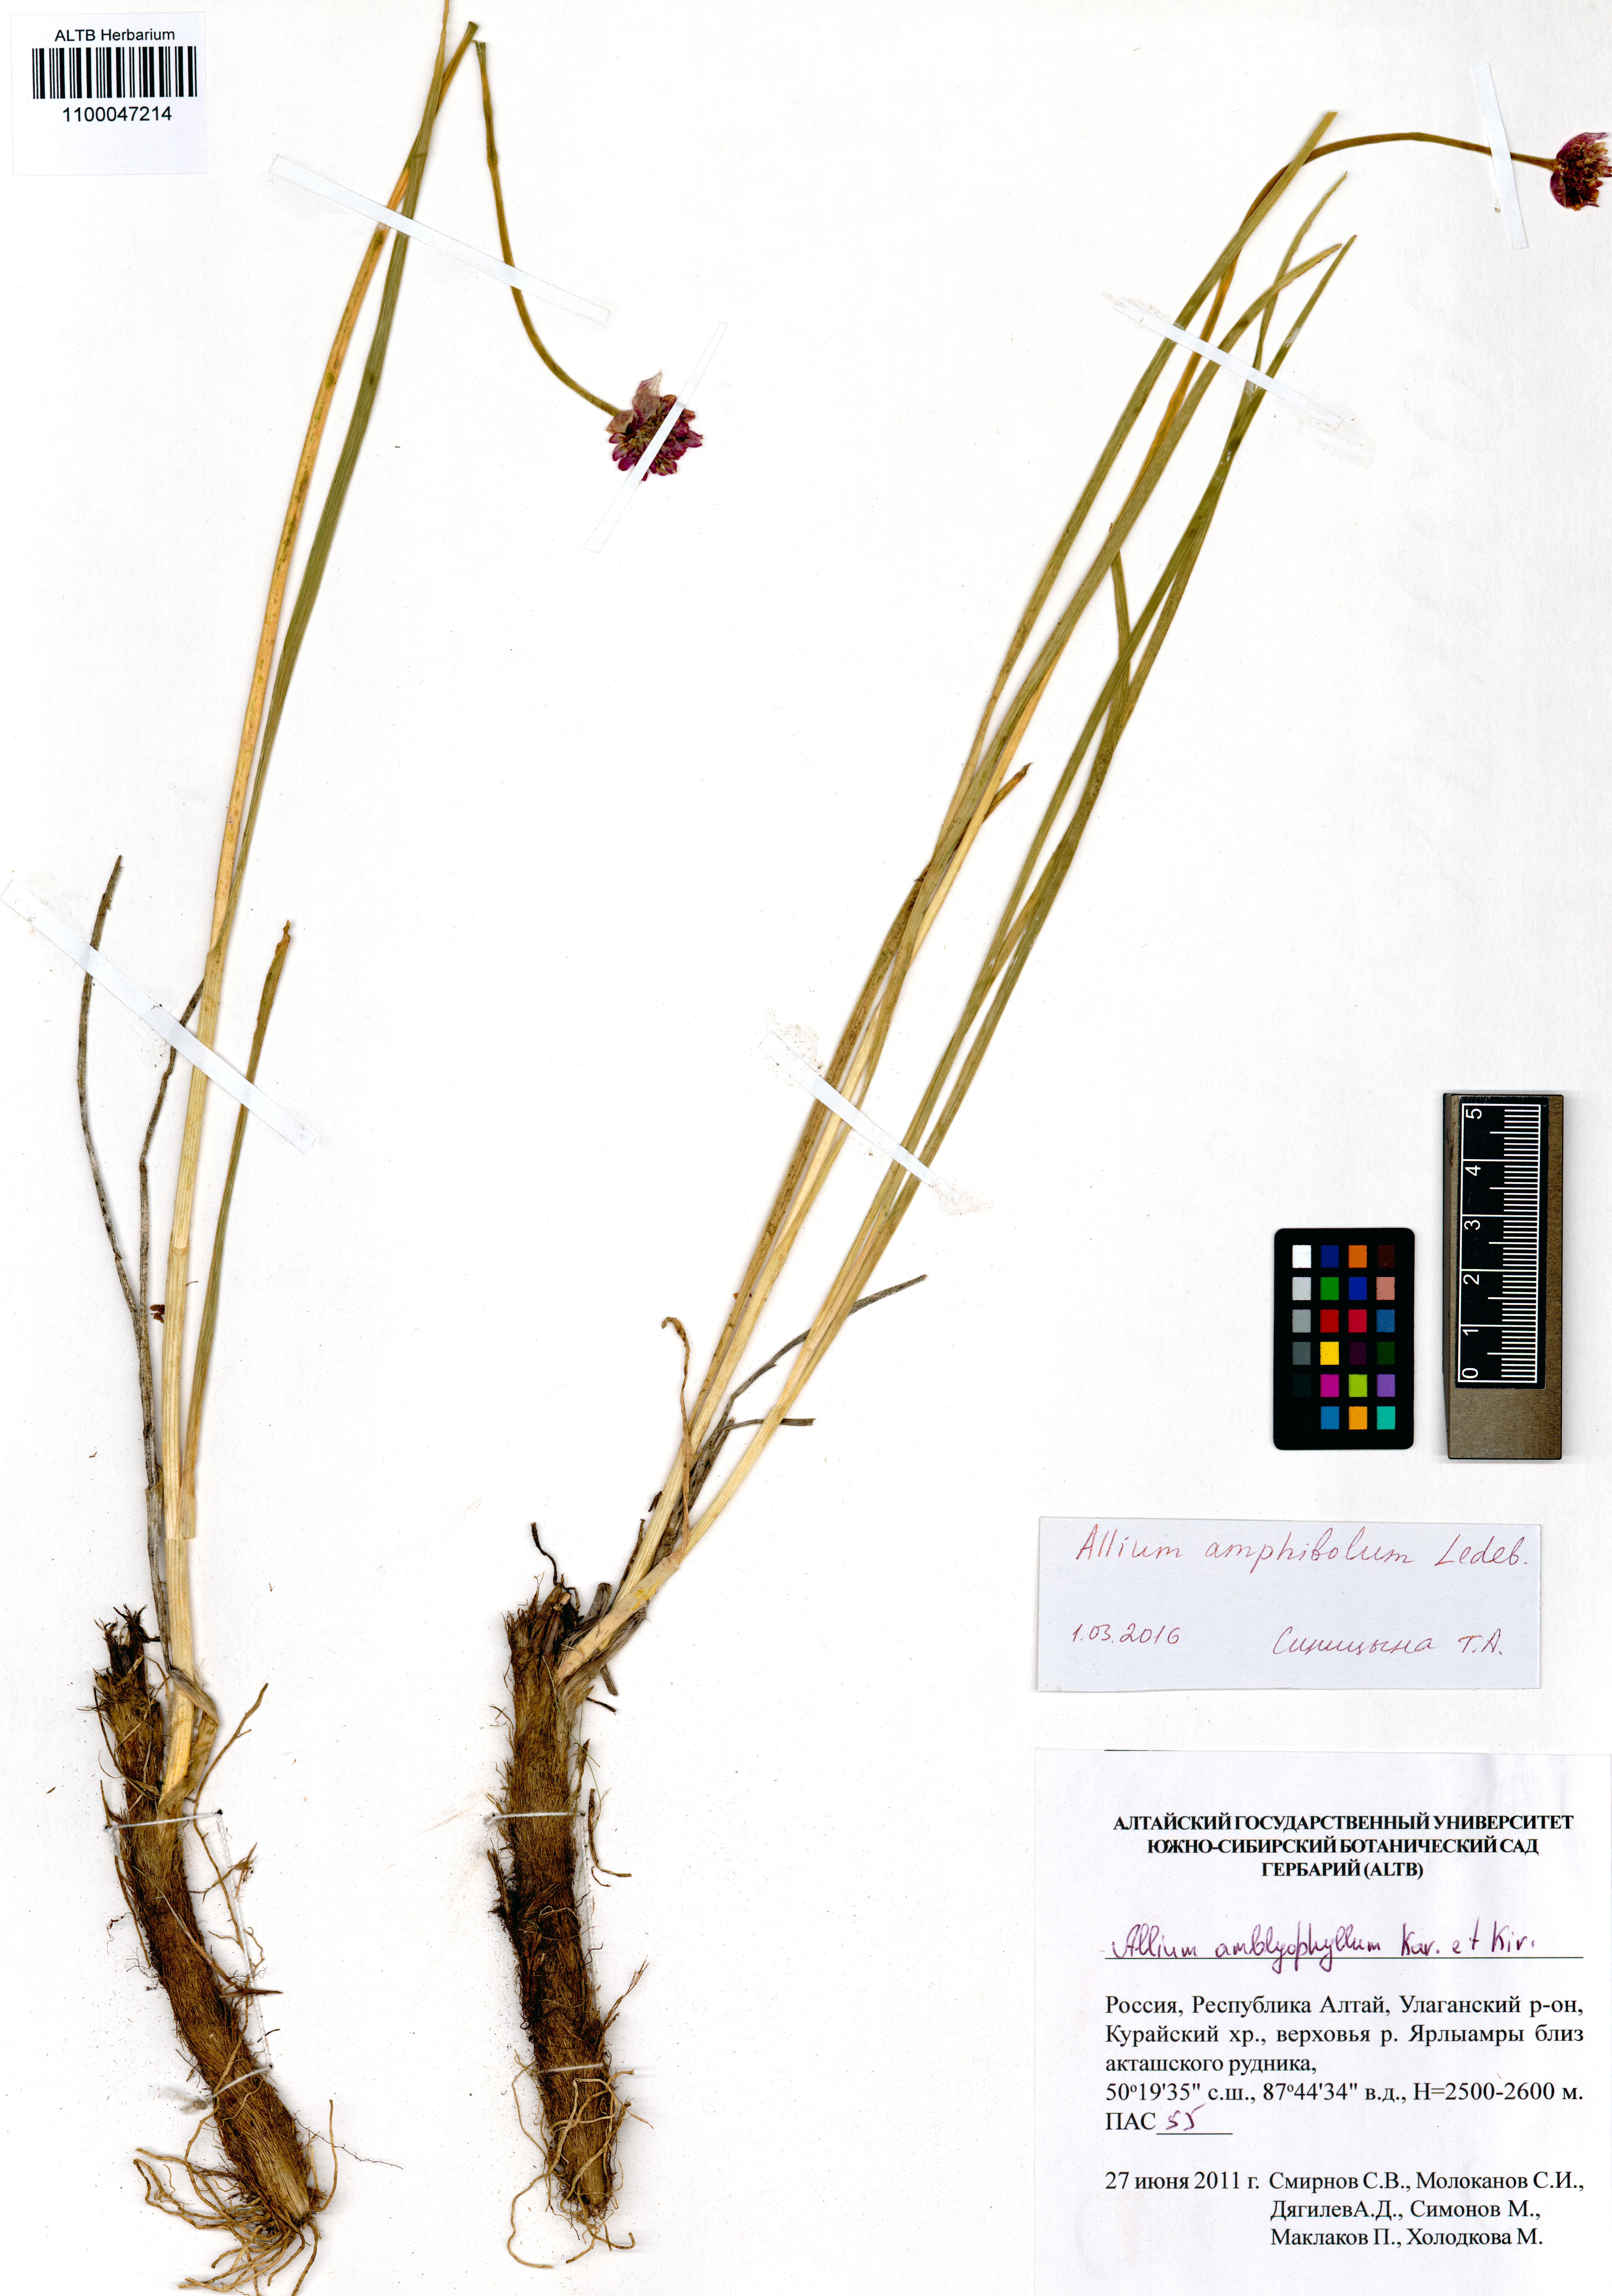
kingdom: Plantae
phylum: Tracheophyta
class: Liliopsida
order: Asparagales
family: Amaryllidaceae
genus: Allium
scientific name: Allium amphibolum
